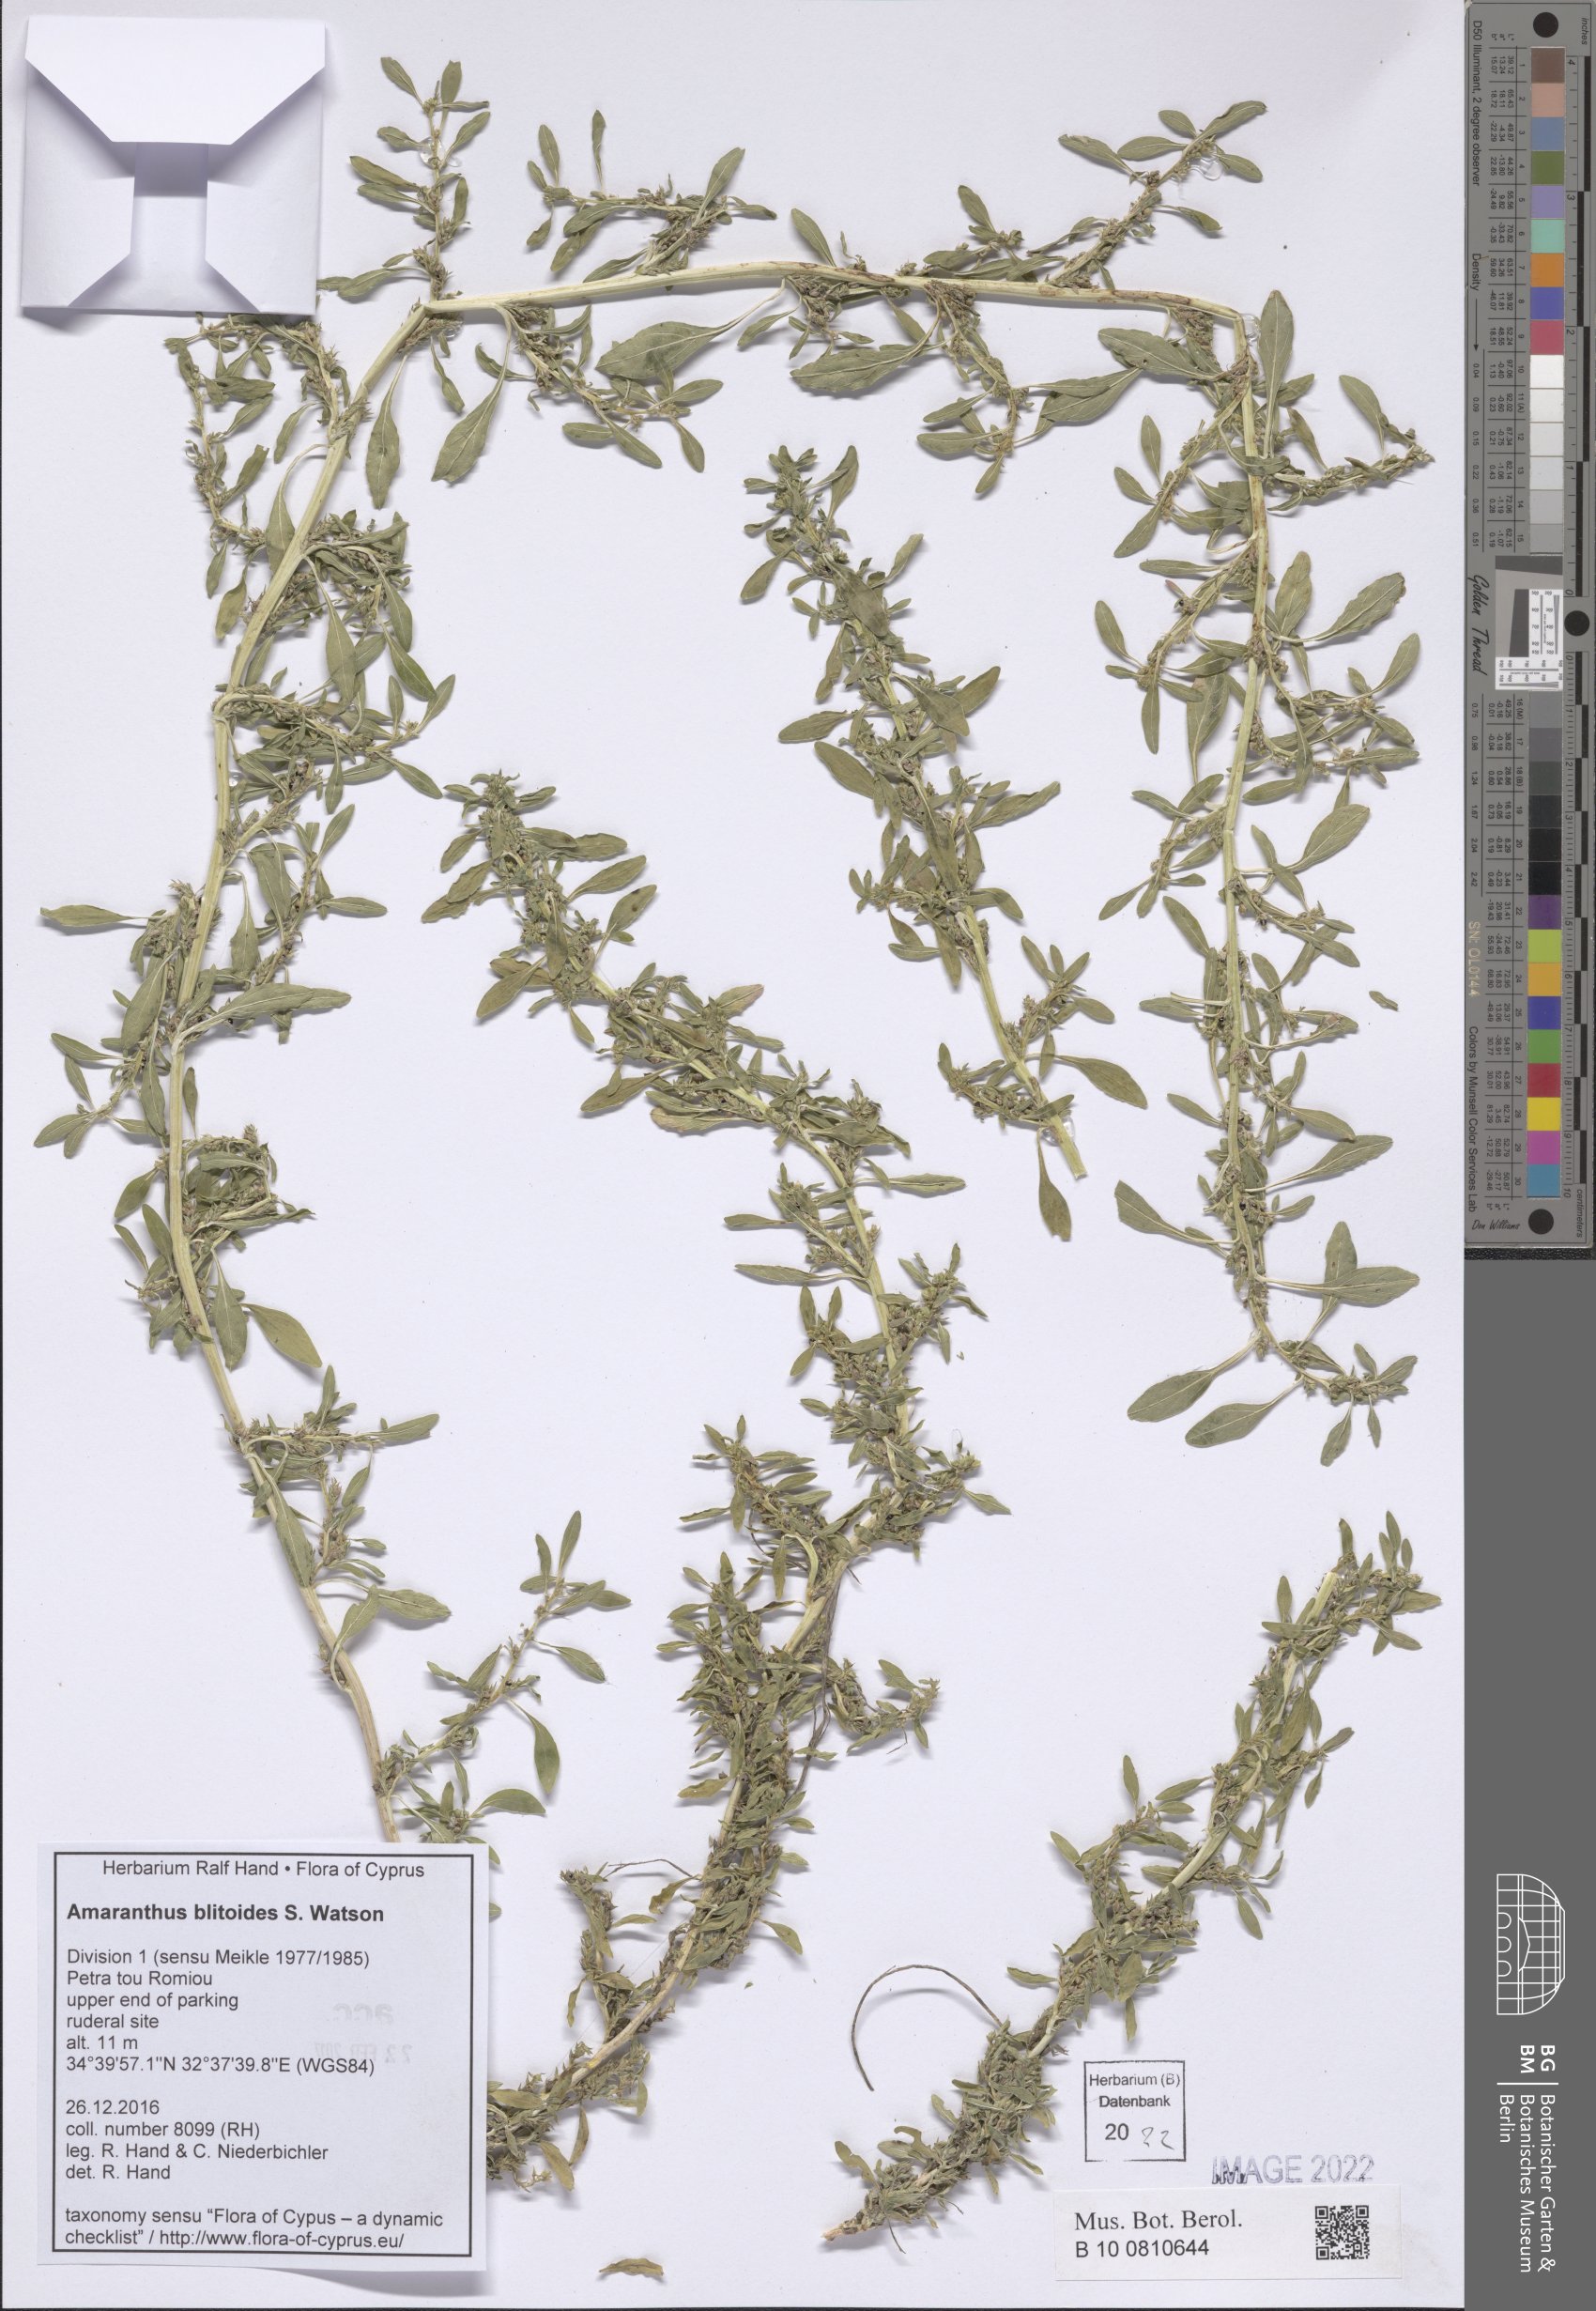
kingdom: Plantae
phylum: Tracheophyta
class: Magnoliopsida
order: Caryophyllales
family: Amaranthaceae
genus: Amaranthus
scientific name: Amaranthus blitoides
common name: Prostrate pigweed
